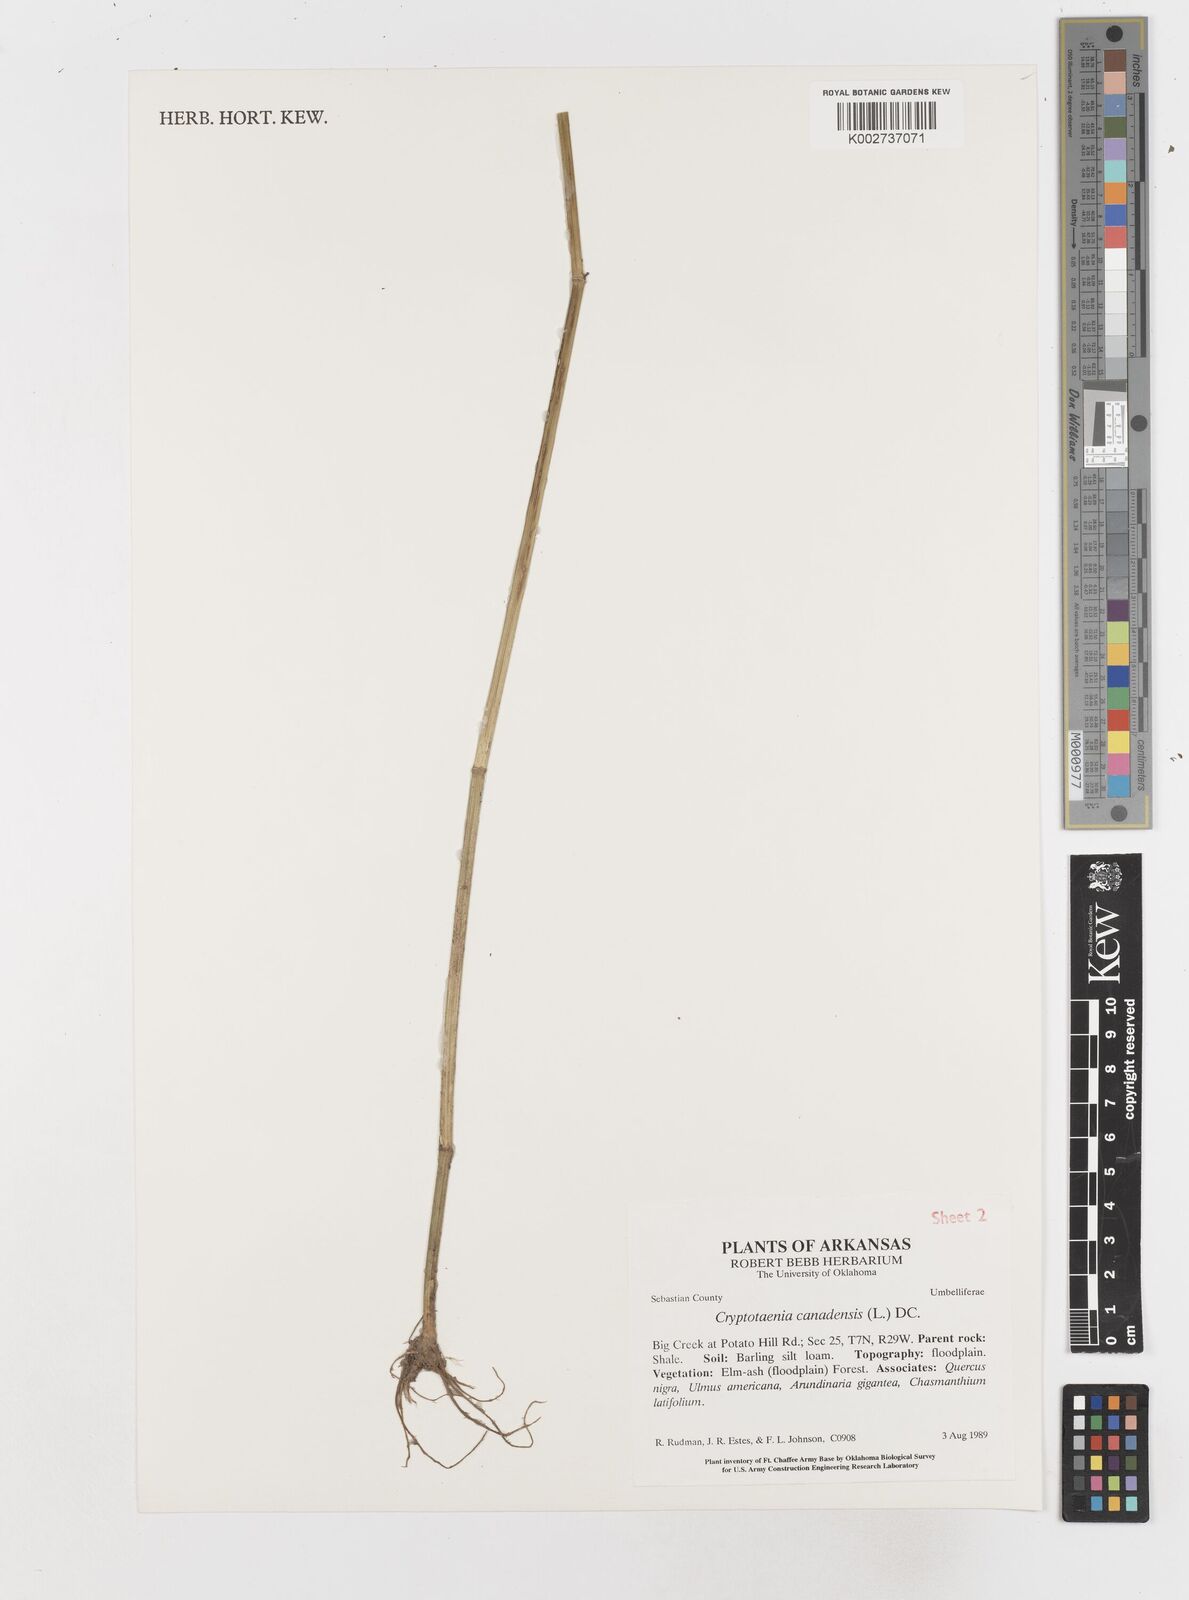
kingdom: Plantae
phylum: Tracheophyta
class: Magnoliopsida
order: Apiales
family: Apiaceae
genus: Cryptotaenia
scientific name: Cryptotaenia canadensis
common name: Honewort
